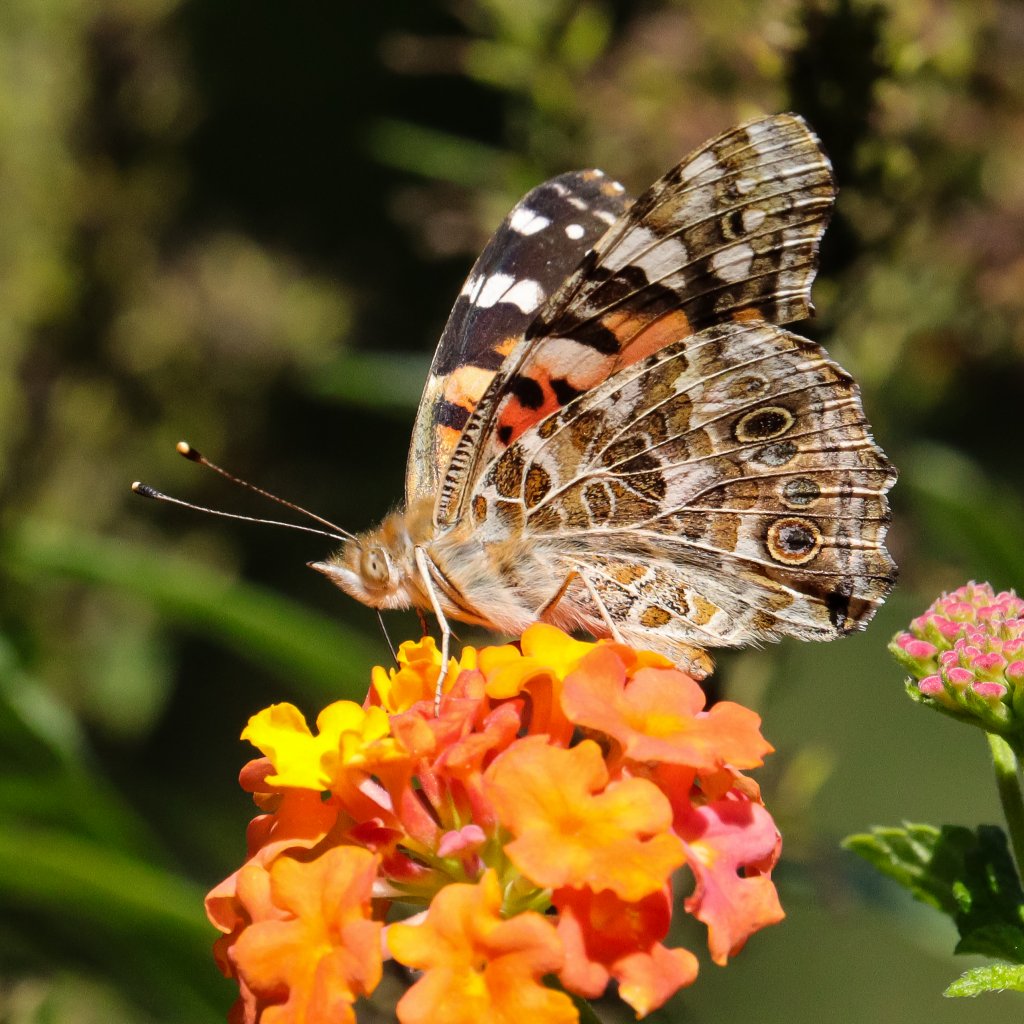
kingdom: Animalia
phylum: Arthropoda
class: Insecta
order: Lepidoptera
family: Nymphalidae
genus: Vanessa
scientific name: Vanessa cardui
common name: Painted Lady
